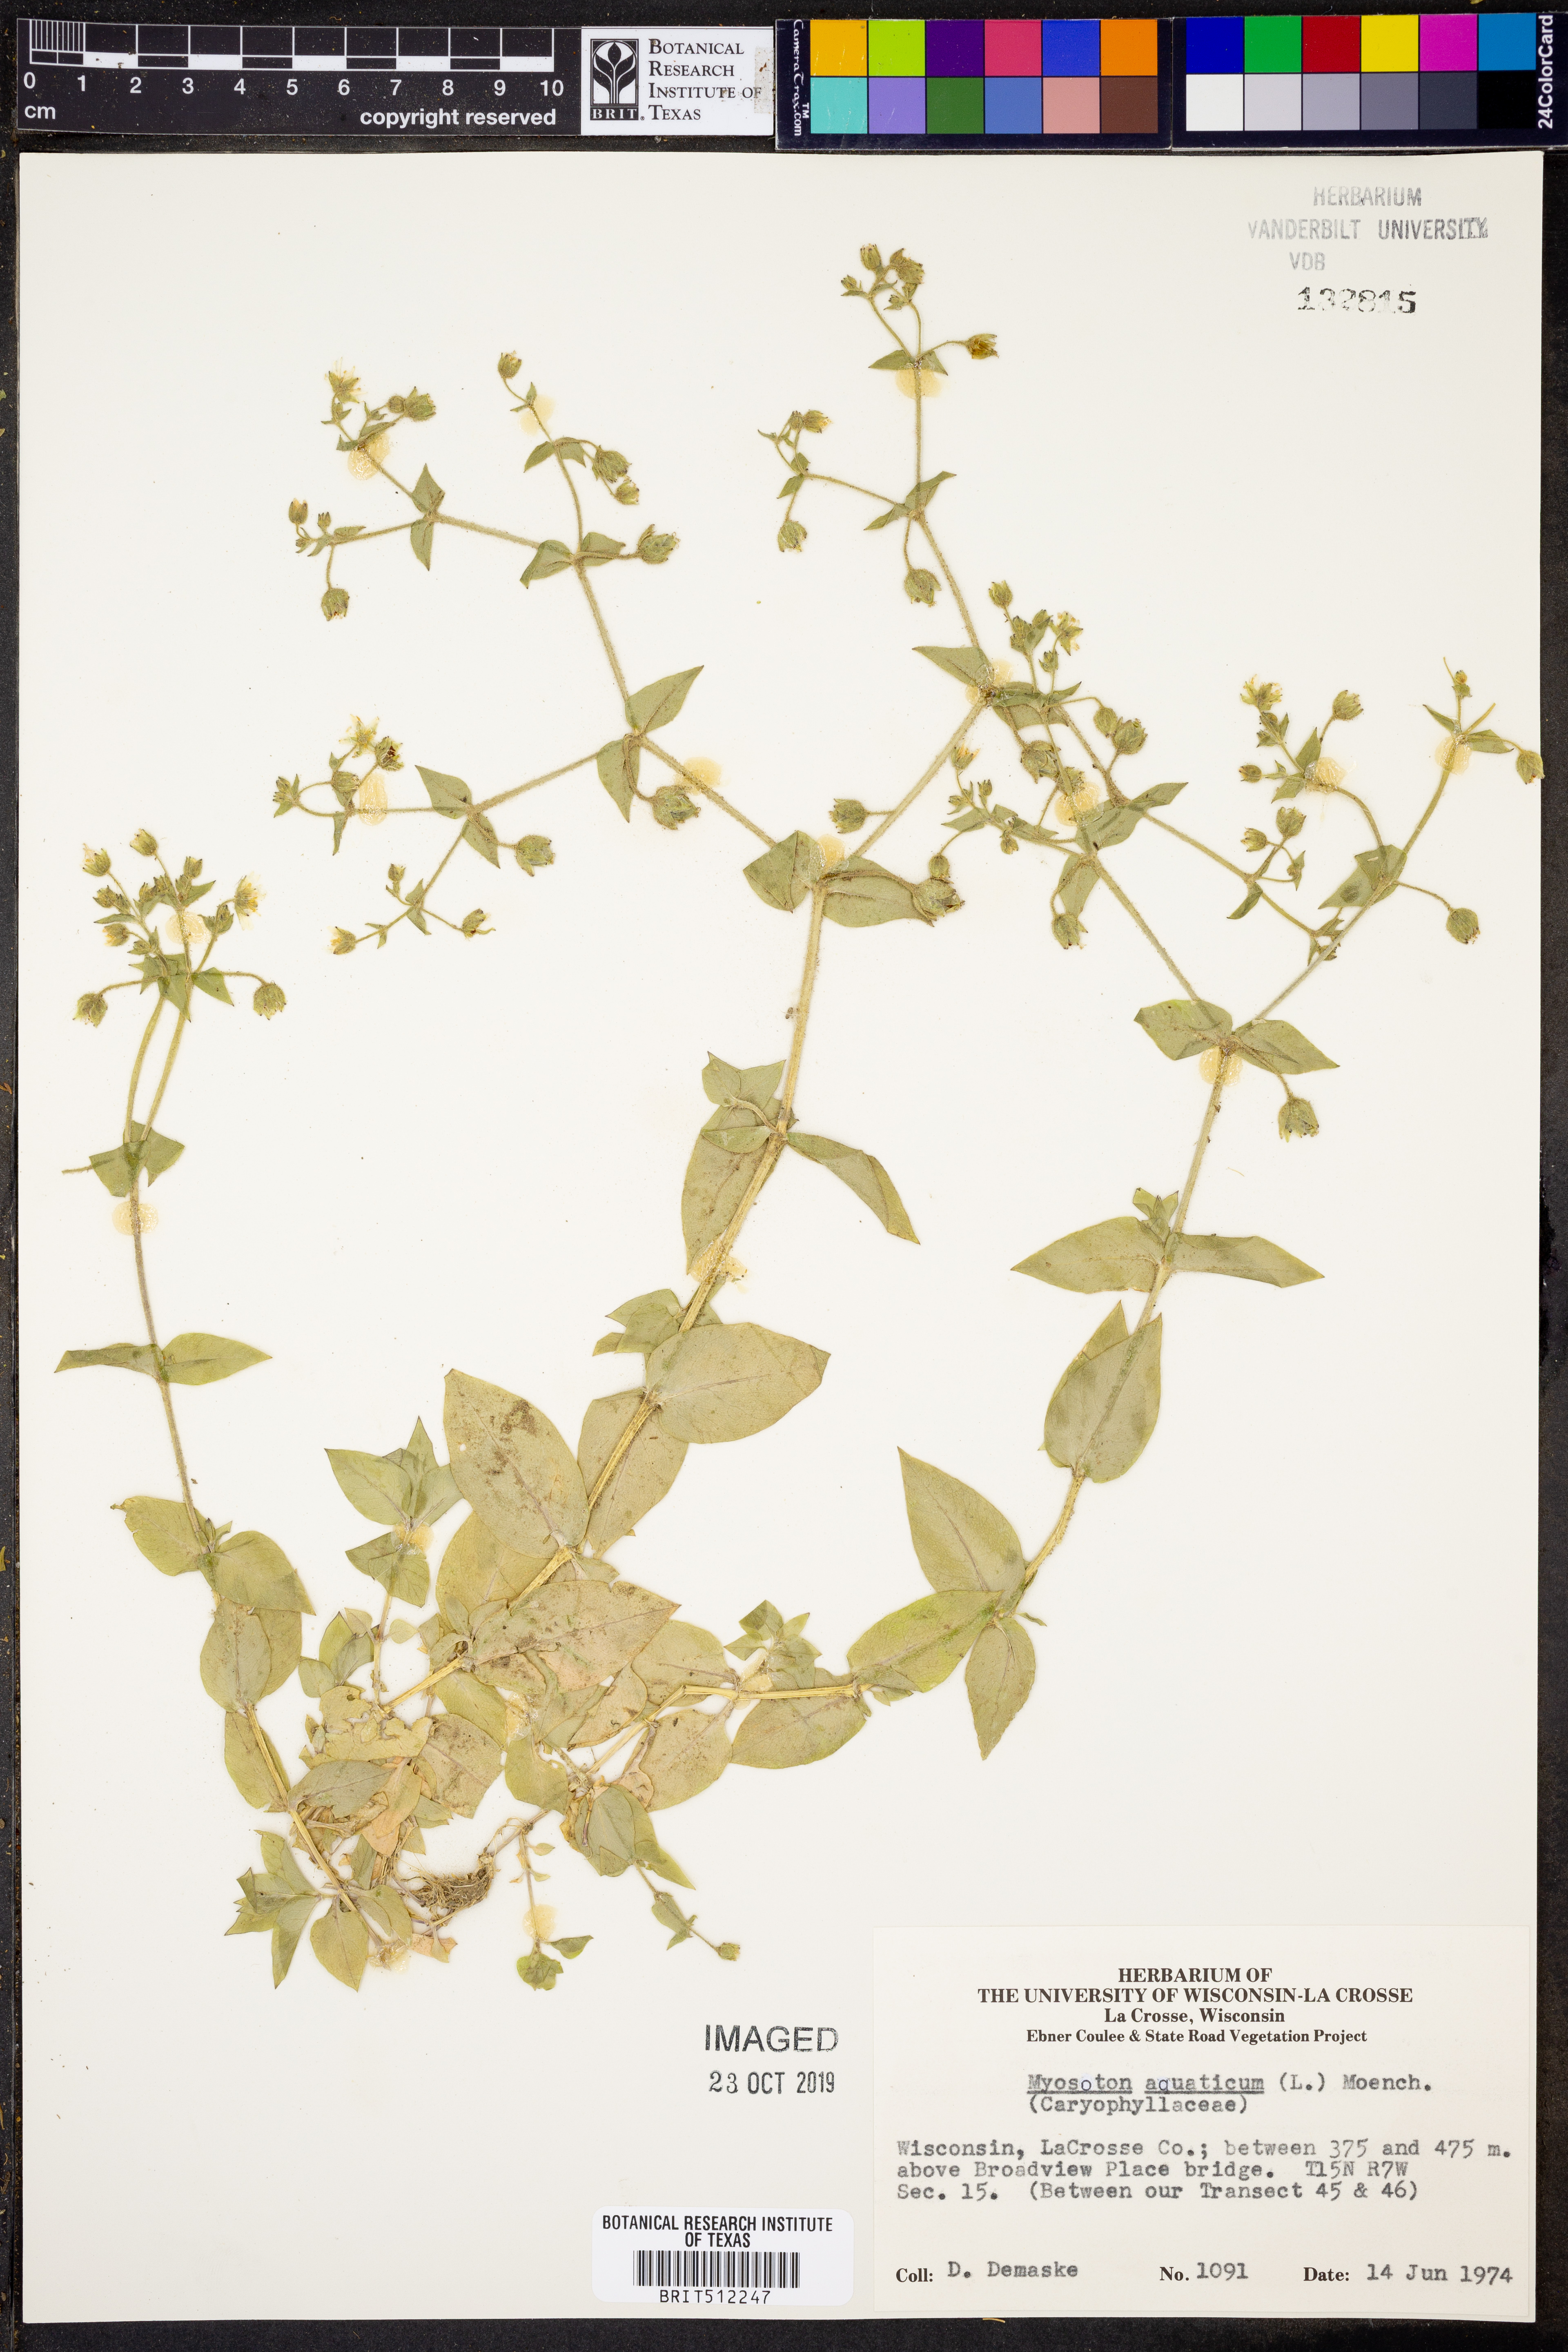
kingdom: Plantae
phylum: Tracheophyta
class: Magnoliopsida
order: Caryophyllales
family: Caryophyllaceae
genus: Stellaria
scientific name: Stellaria aquatica
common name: Water chickweed
